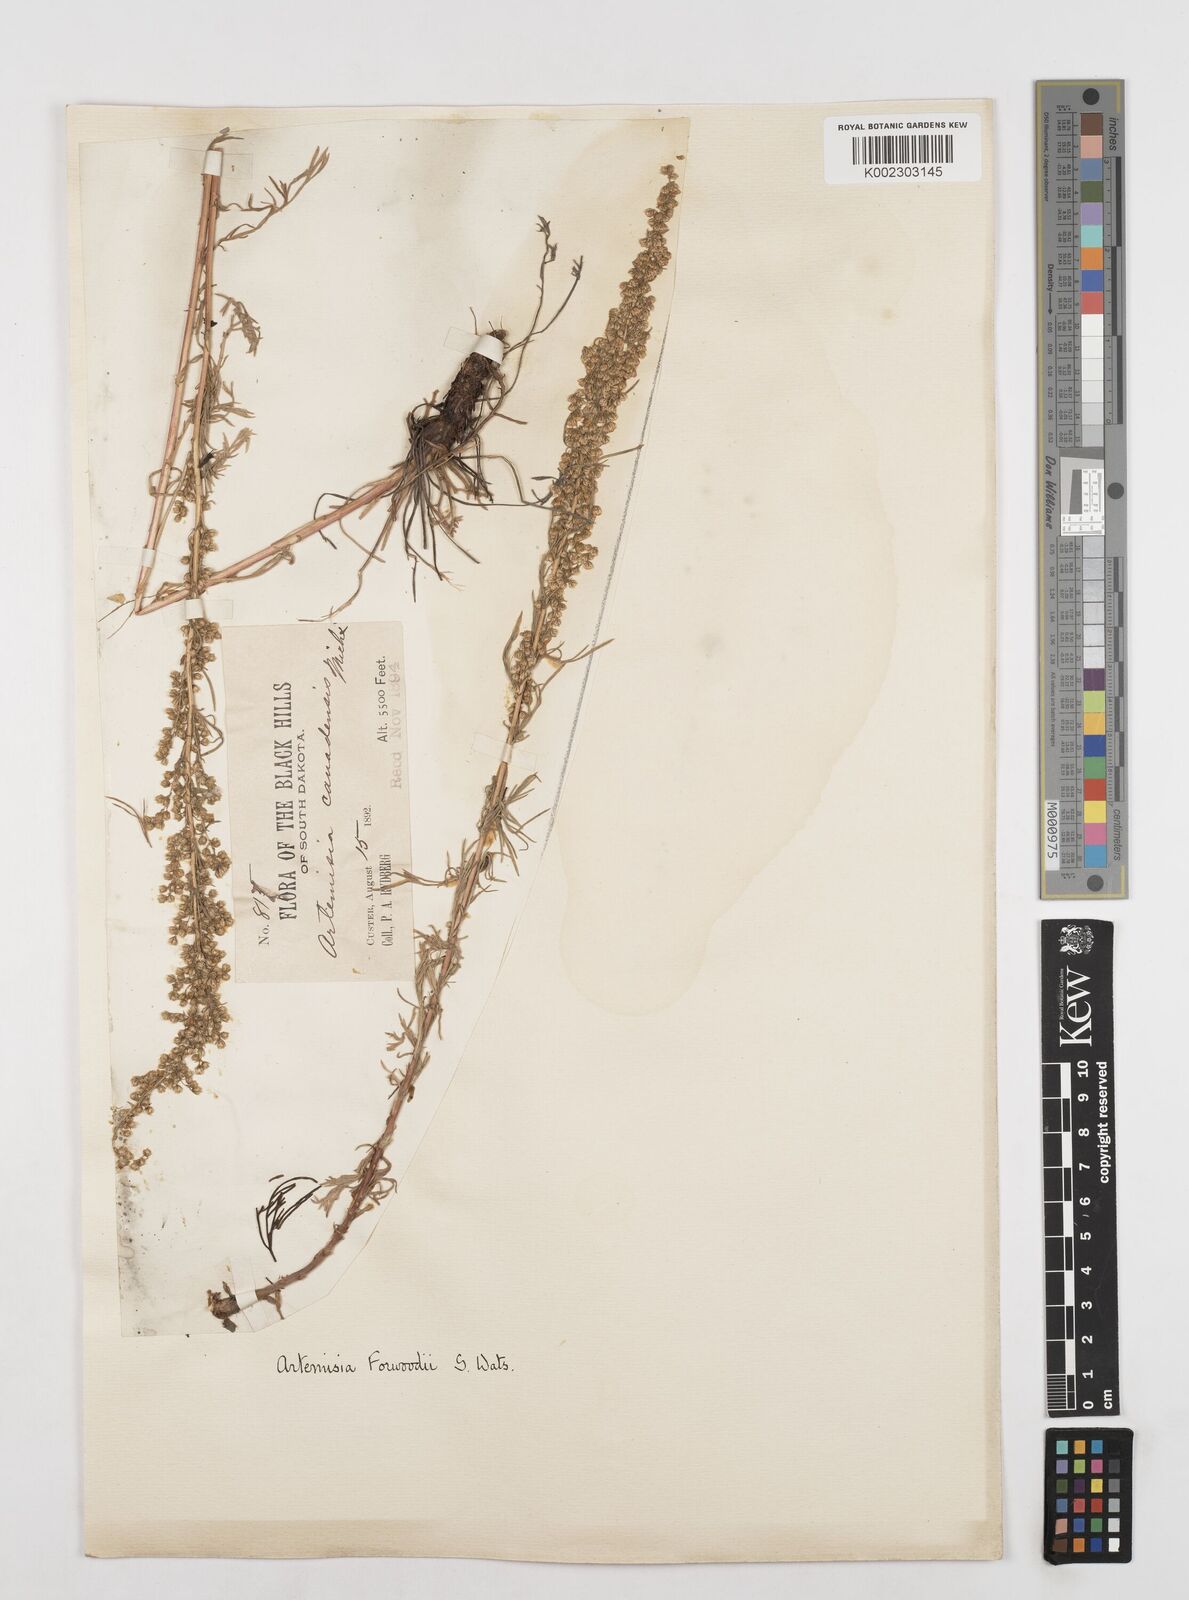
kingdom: Plantae
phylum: Tracheophyta
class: Magnoliopsida
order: Asterales
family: Asteraceae
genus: Artemisia
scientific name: Artemisia campestris
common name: Field wormwood
